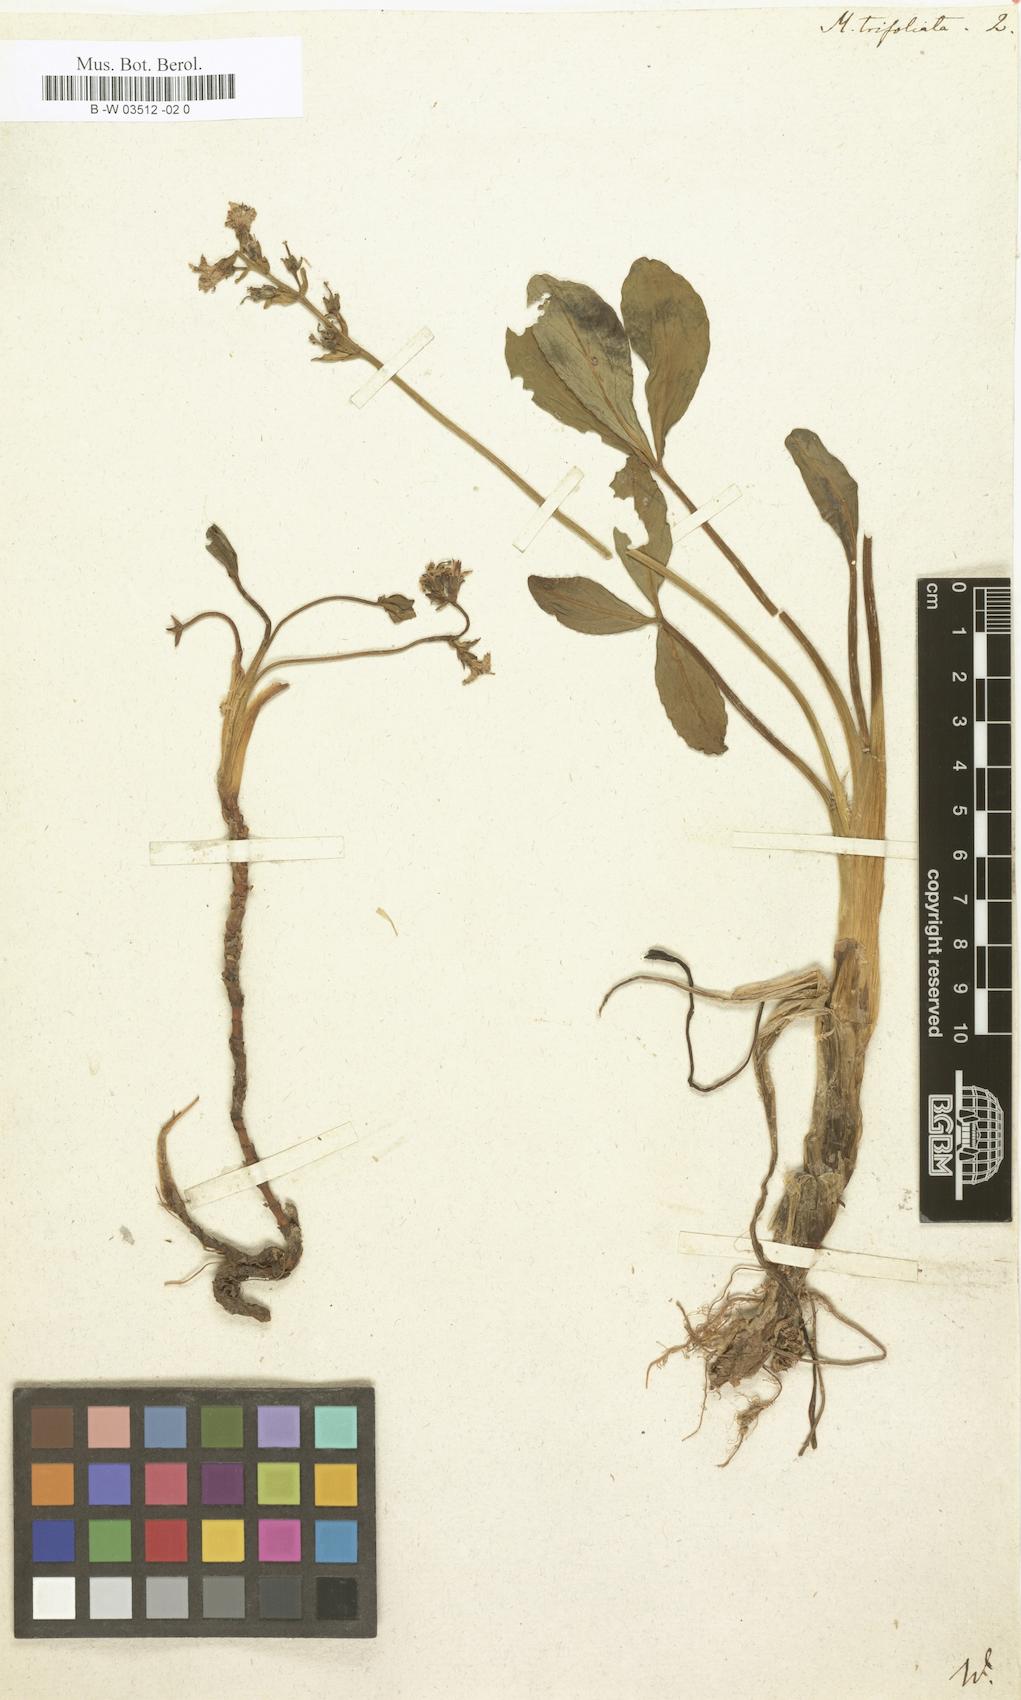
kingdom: Plantae
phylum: Tracheophyta
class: Magnoliopsida
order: Asterales
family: Menyanthaceae
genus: Menyanthes
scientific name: Menyanthes trifoliata
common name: Bogbean
